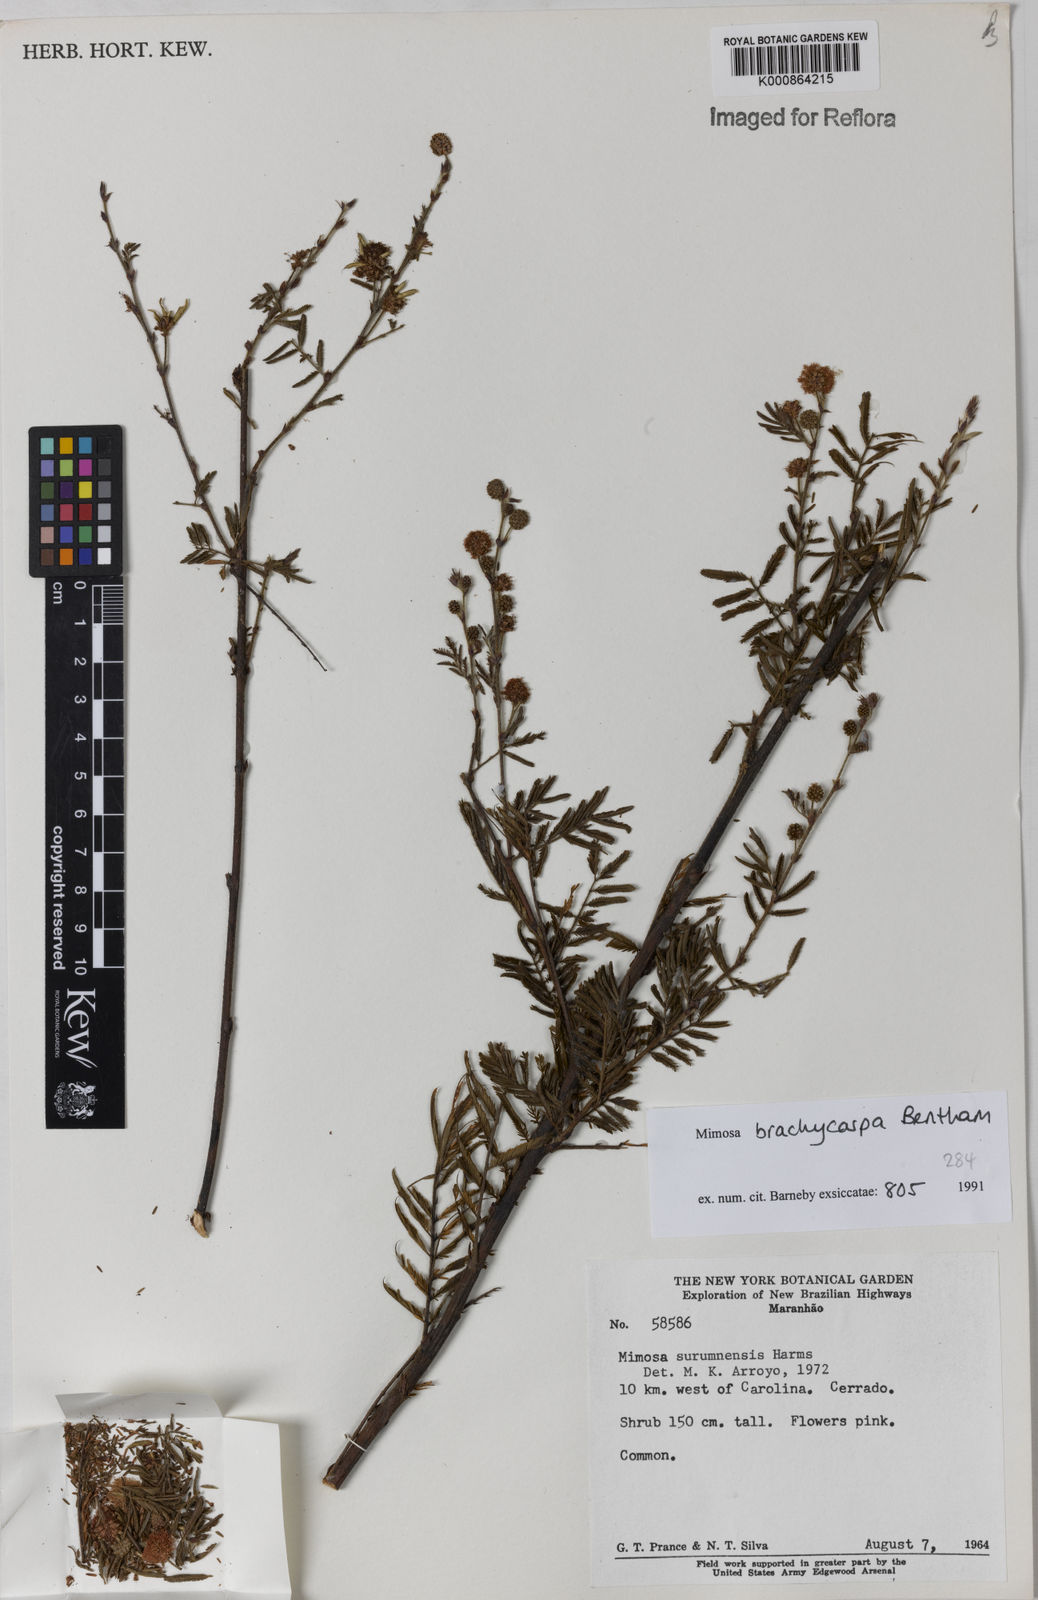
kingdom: Plantae
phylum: Tracheophyta
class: Magnoliopsida
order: Fabales
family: Fabaceae
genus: Mimosa
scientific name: Mimosa brachycarpa
